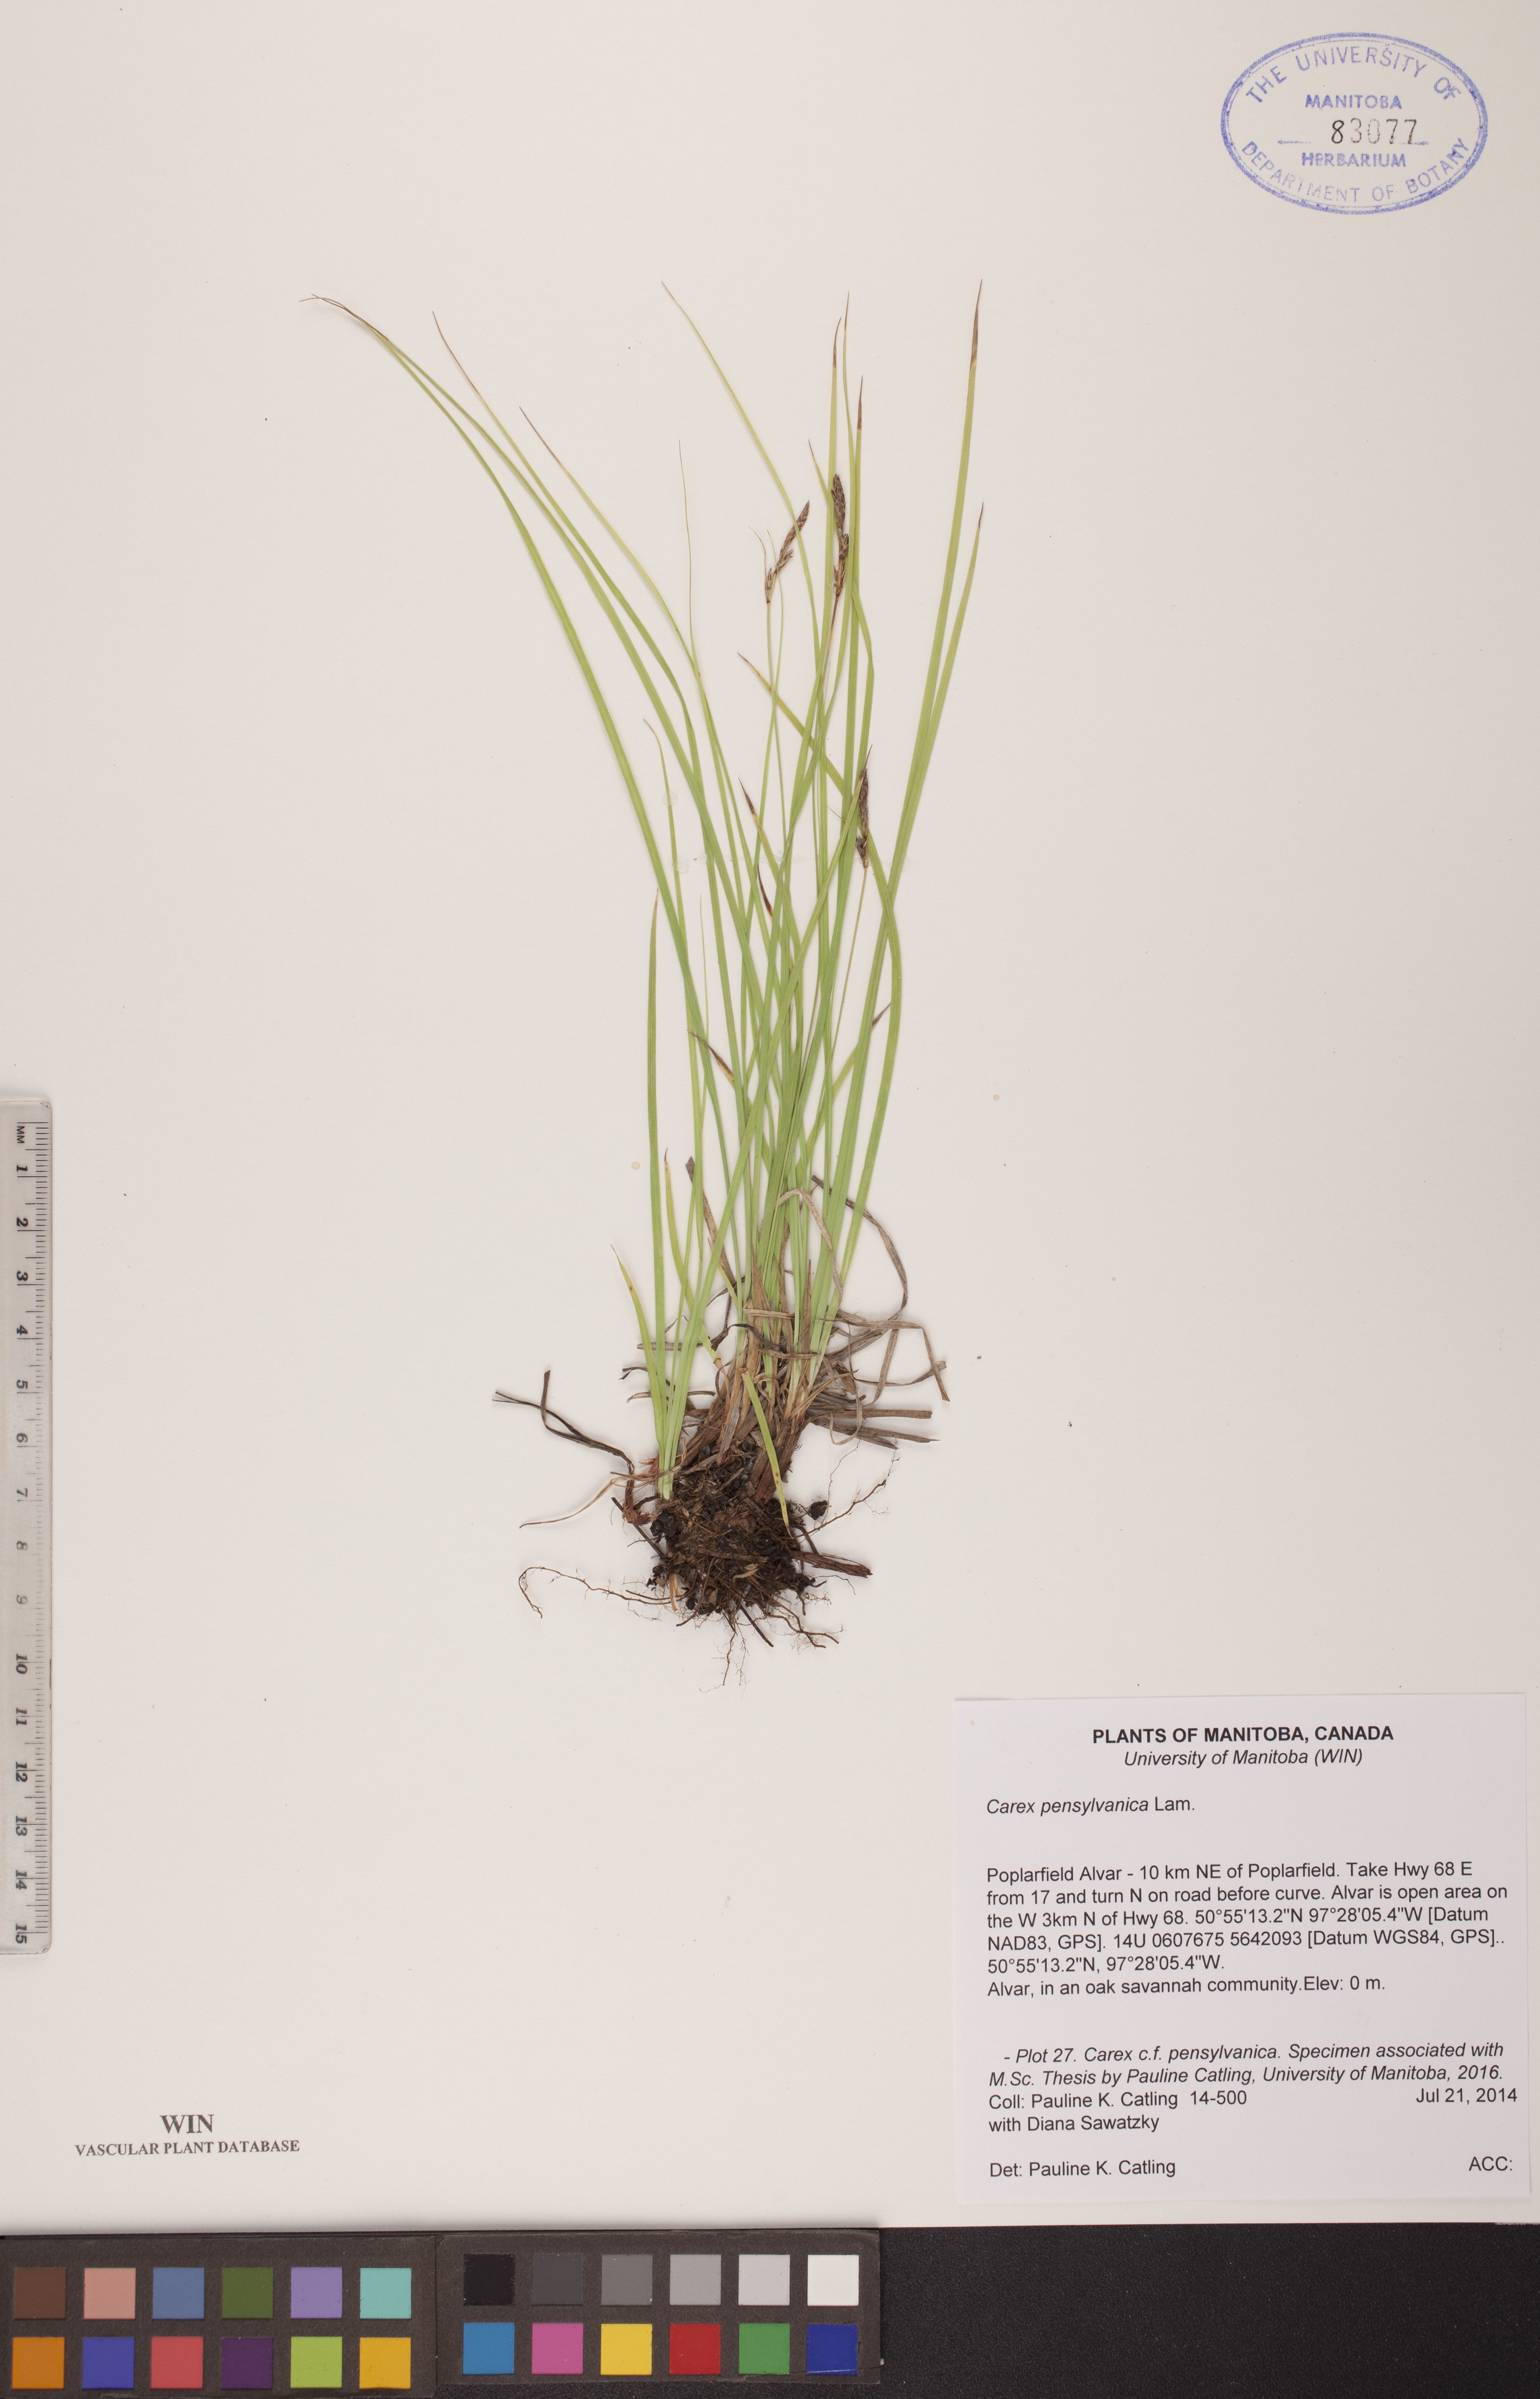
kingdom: Plantae
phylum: Tracheophyta
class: Liliopsida
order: Poales
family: Cyperaceae
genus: Carex
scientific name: Carex pensylvanica
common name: Common oak sedge
